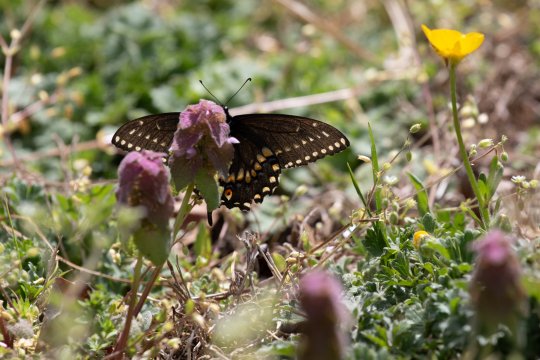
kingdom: Animalia
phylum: Arthropoda
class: Insecta
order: Lepidoptera
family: Papilionidae
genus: Papilio
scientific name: Papilio polyxenes
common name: Black Swallowtail
